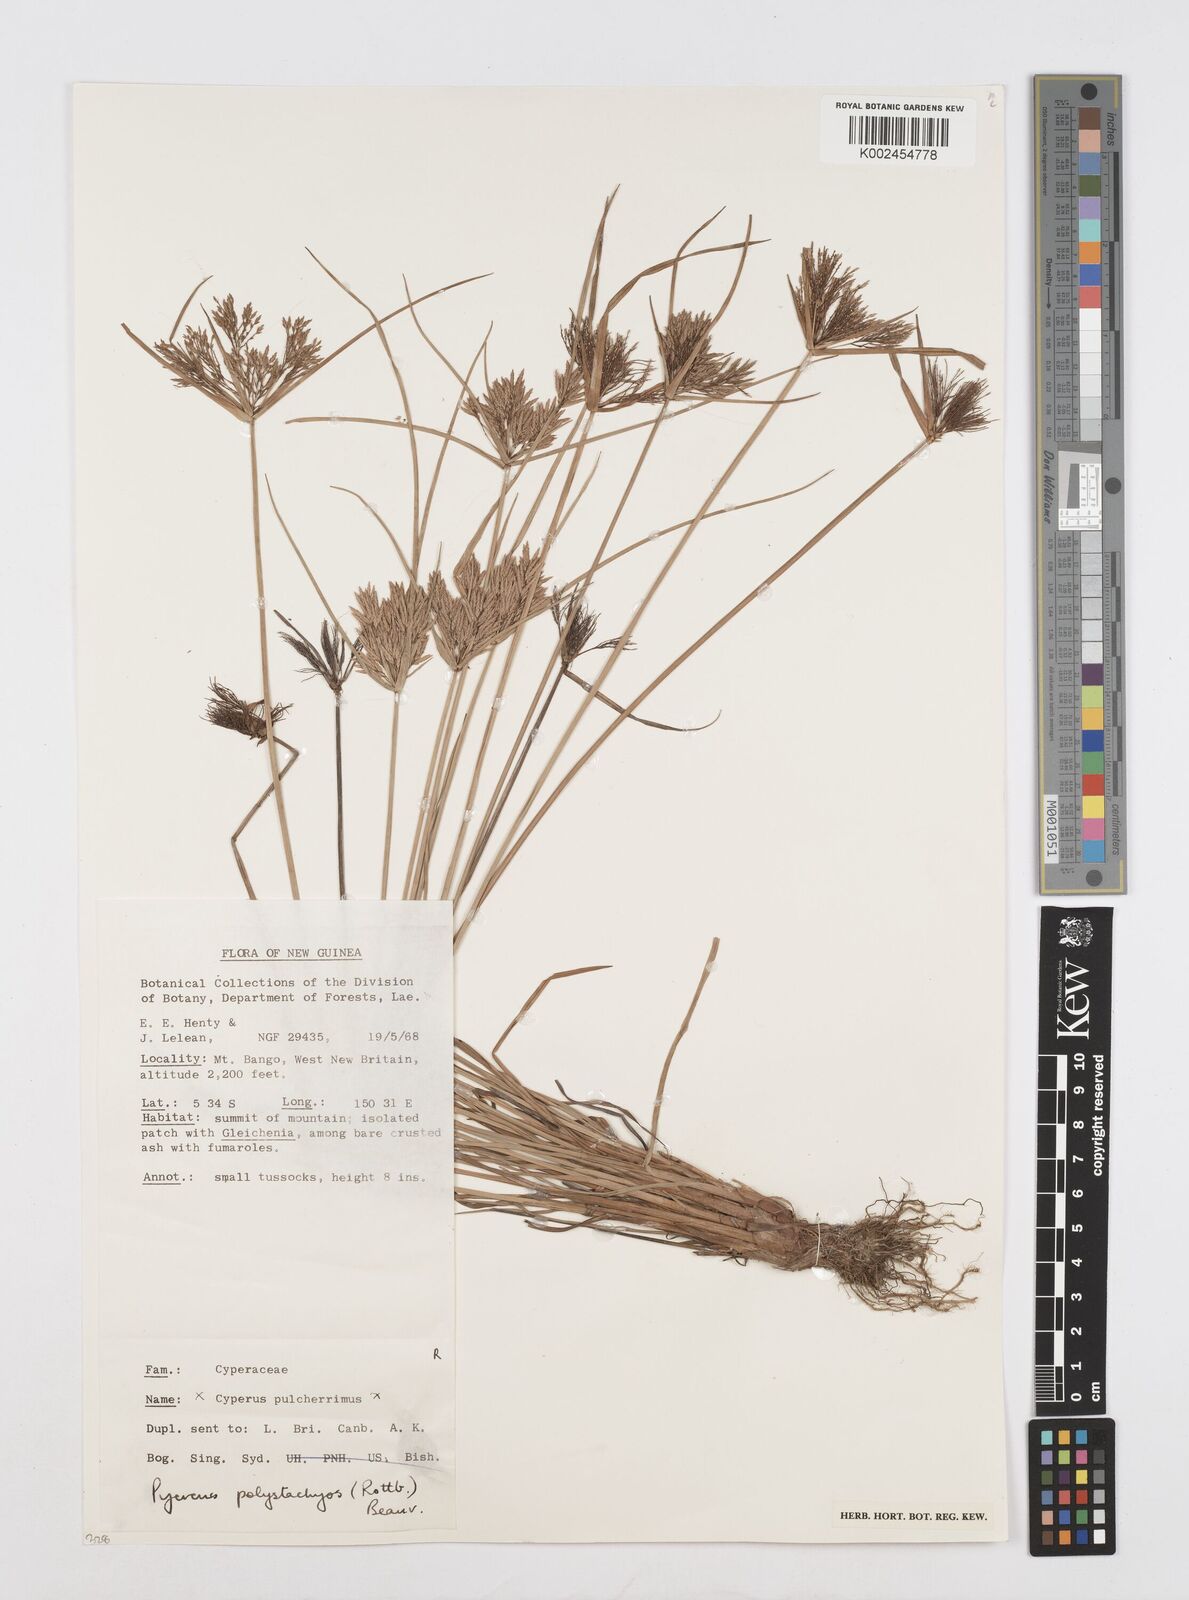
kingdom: Plantae
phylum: Tracheophyta
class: Liliopsida
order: Poales
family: Cyperaceae
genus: Cyperus
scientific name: Cyperus polystachyos
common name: Bunchy flat sedge
